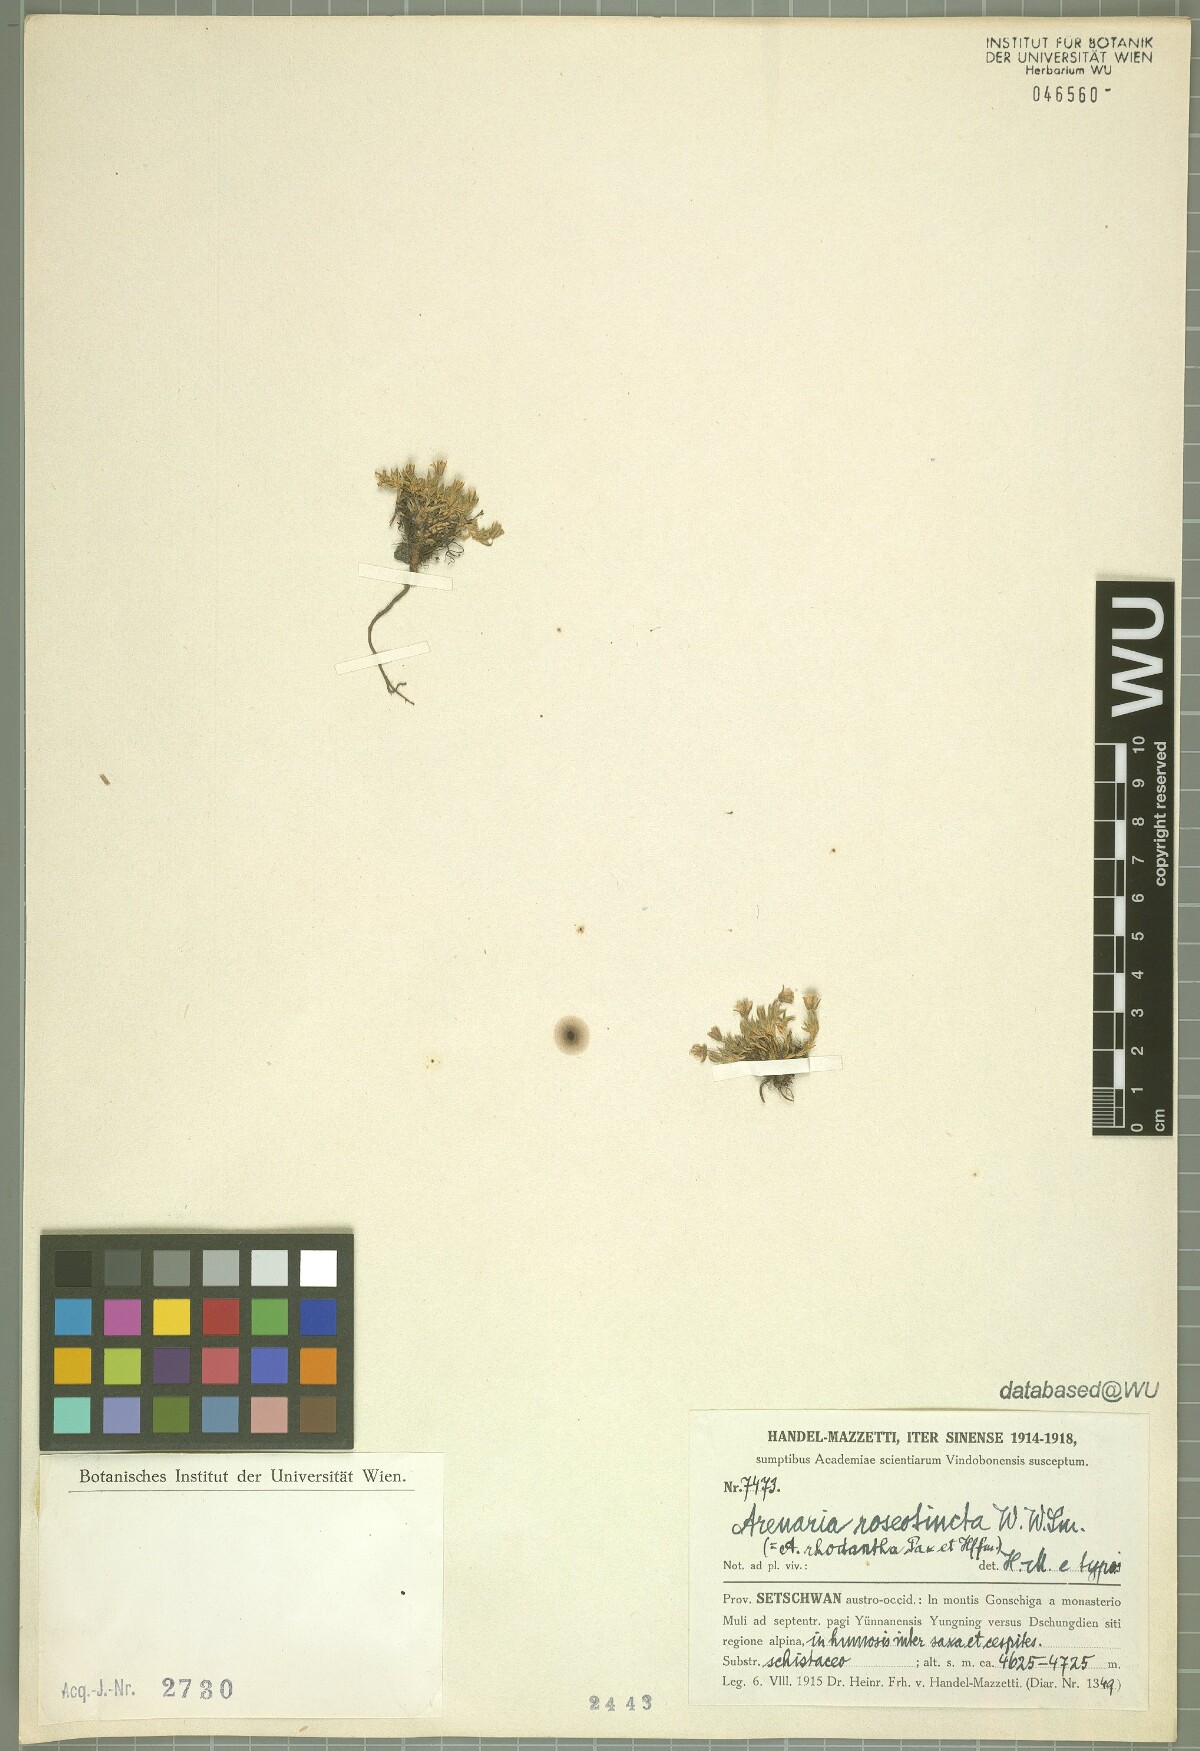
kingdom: Plantae
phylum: Tracheophyta
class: Magnoliopsida
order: Caryophyllales
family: Caryophyllaceae
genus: Shivparvatia
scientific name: Shivparvatia rhodantha
